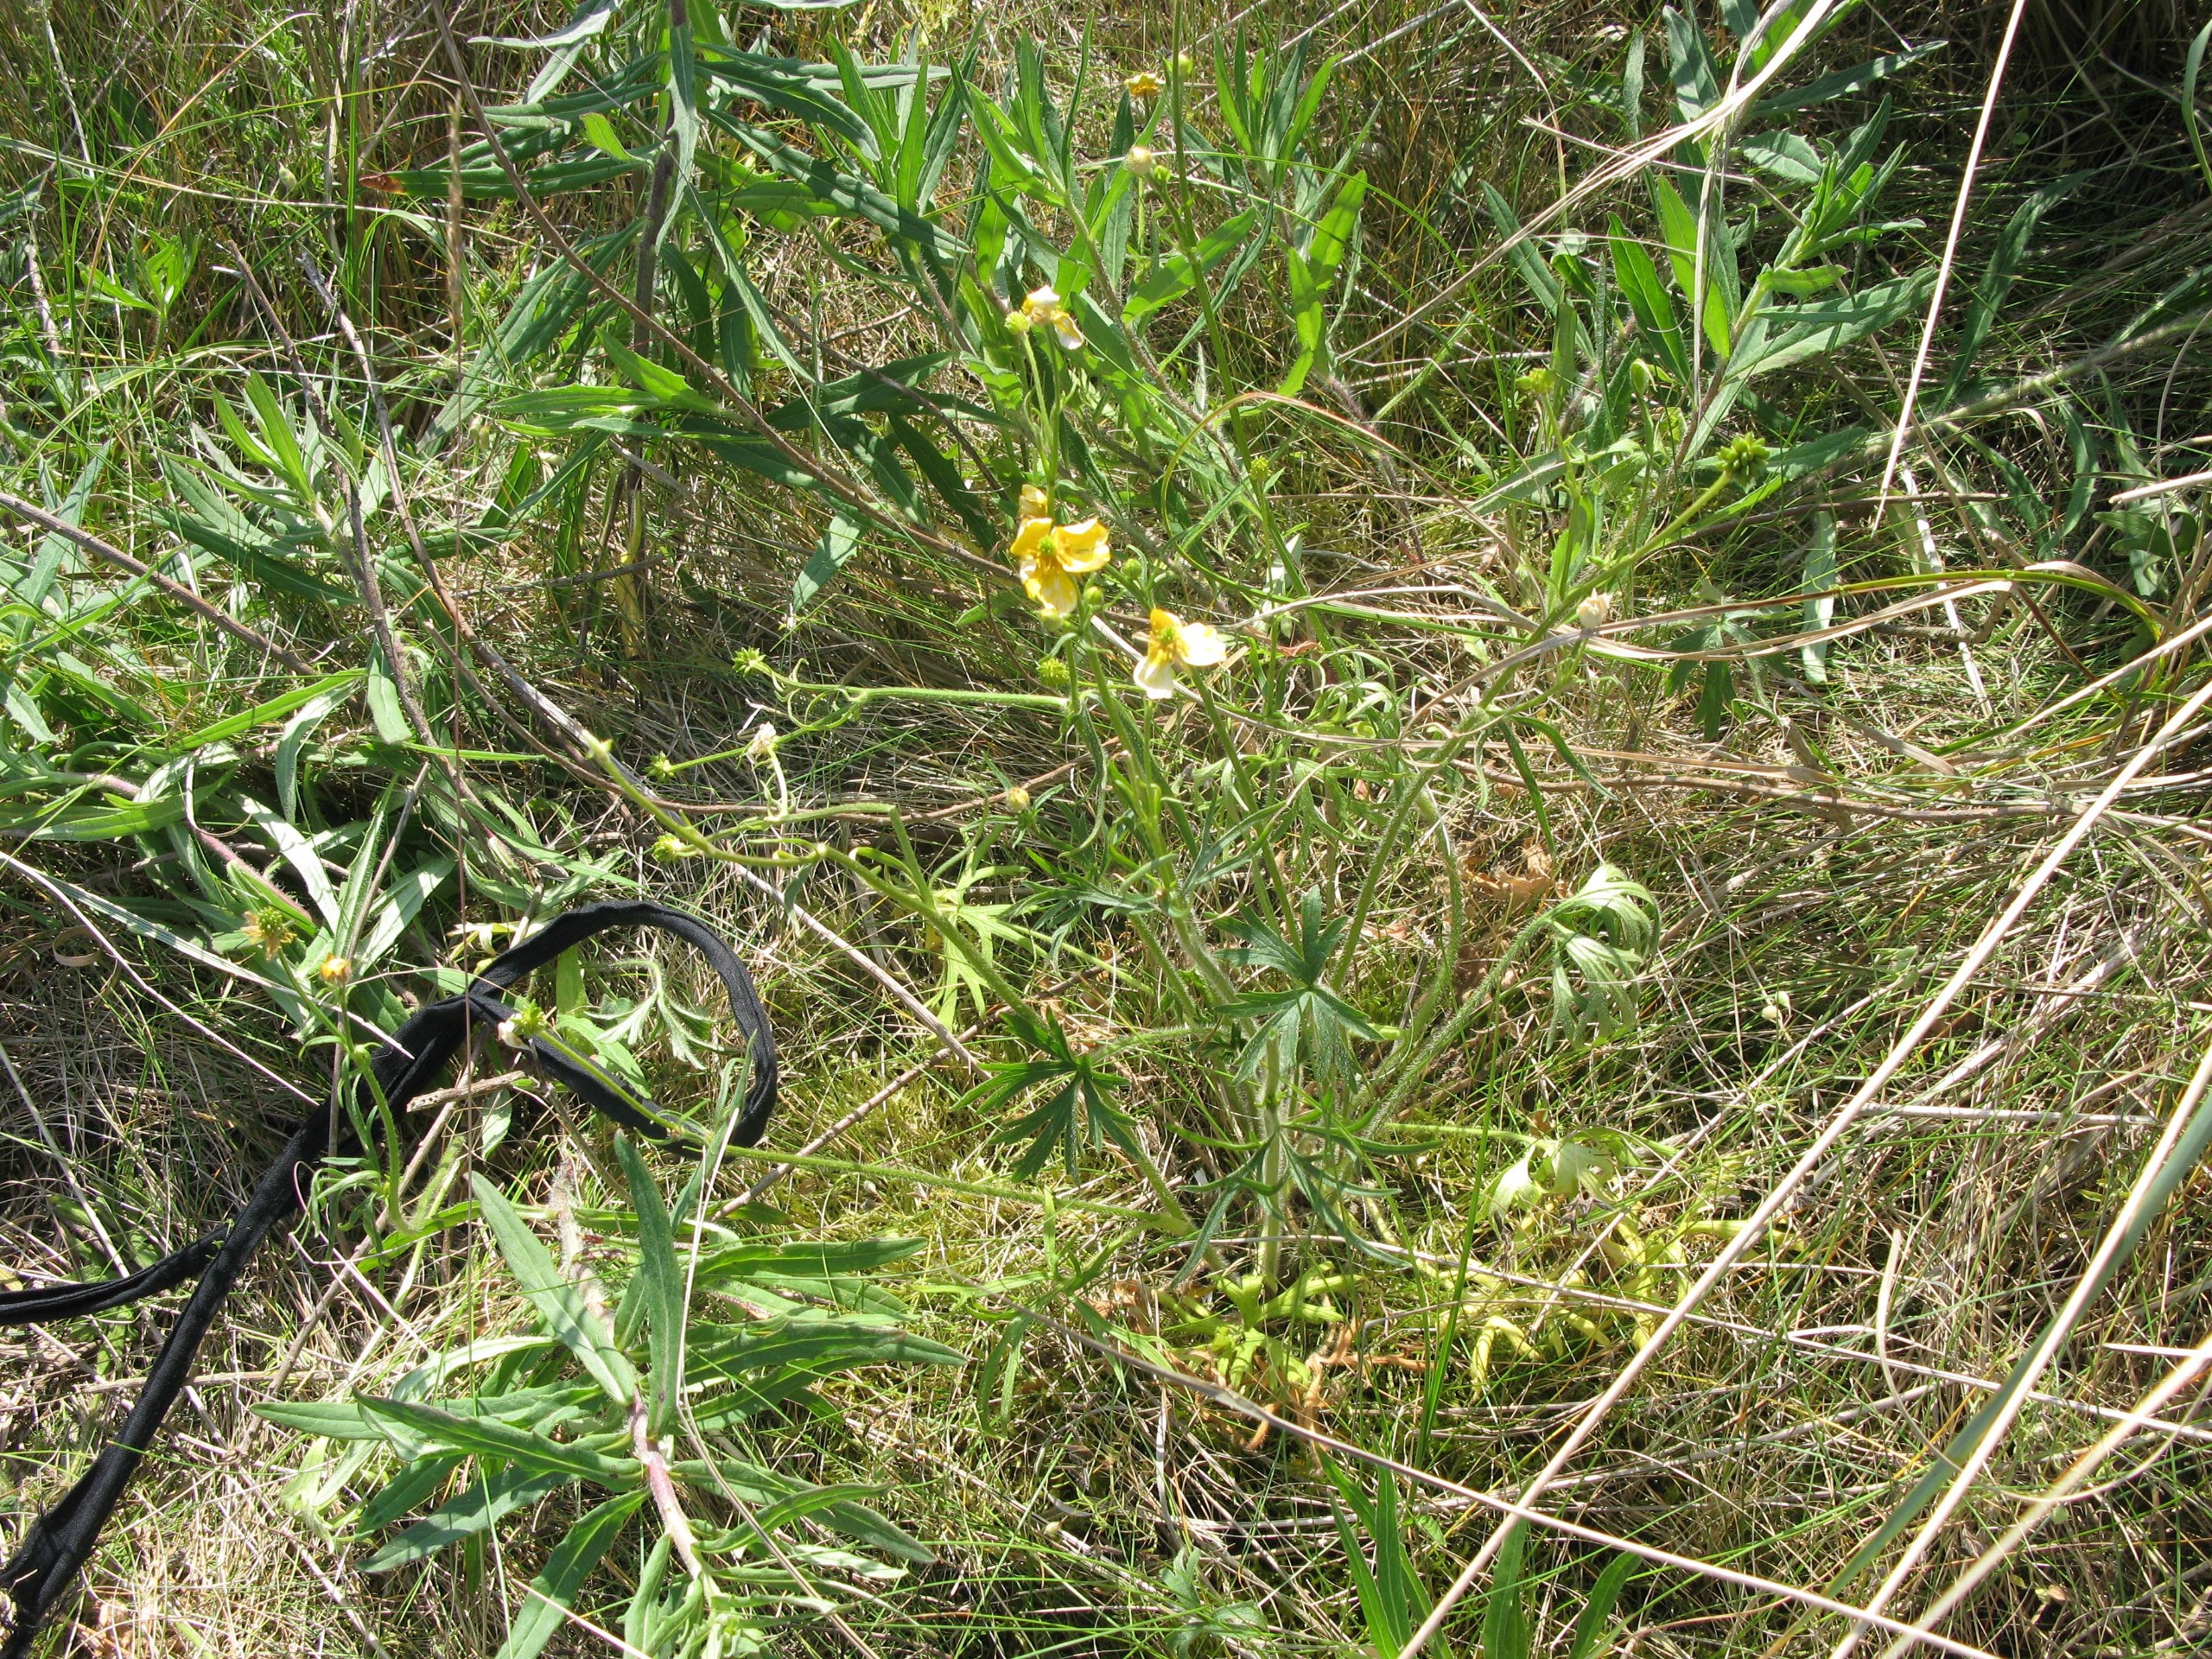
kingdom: Plantae
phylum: Tracheophyta
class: Magnoliopsida
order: Ranunculales
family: Ranunculaceae
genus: Ranunculus
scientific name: Ranunculus polyanthemos
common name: Mangeblomstret ranunkel
